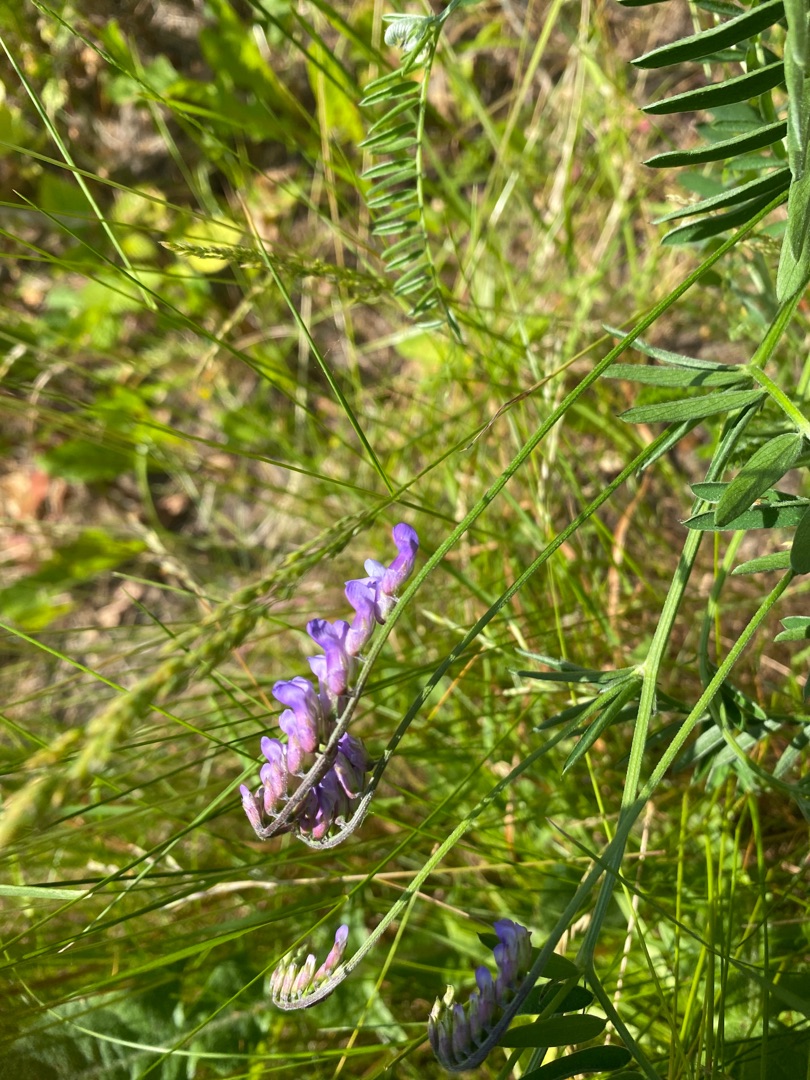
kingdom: Plantae
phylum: Tracheophyta
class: Magnoliopsida
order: Fabales
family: Fabaceae
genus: Vicia
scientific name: Vicia cracca
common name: Muse-vikke
